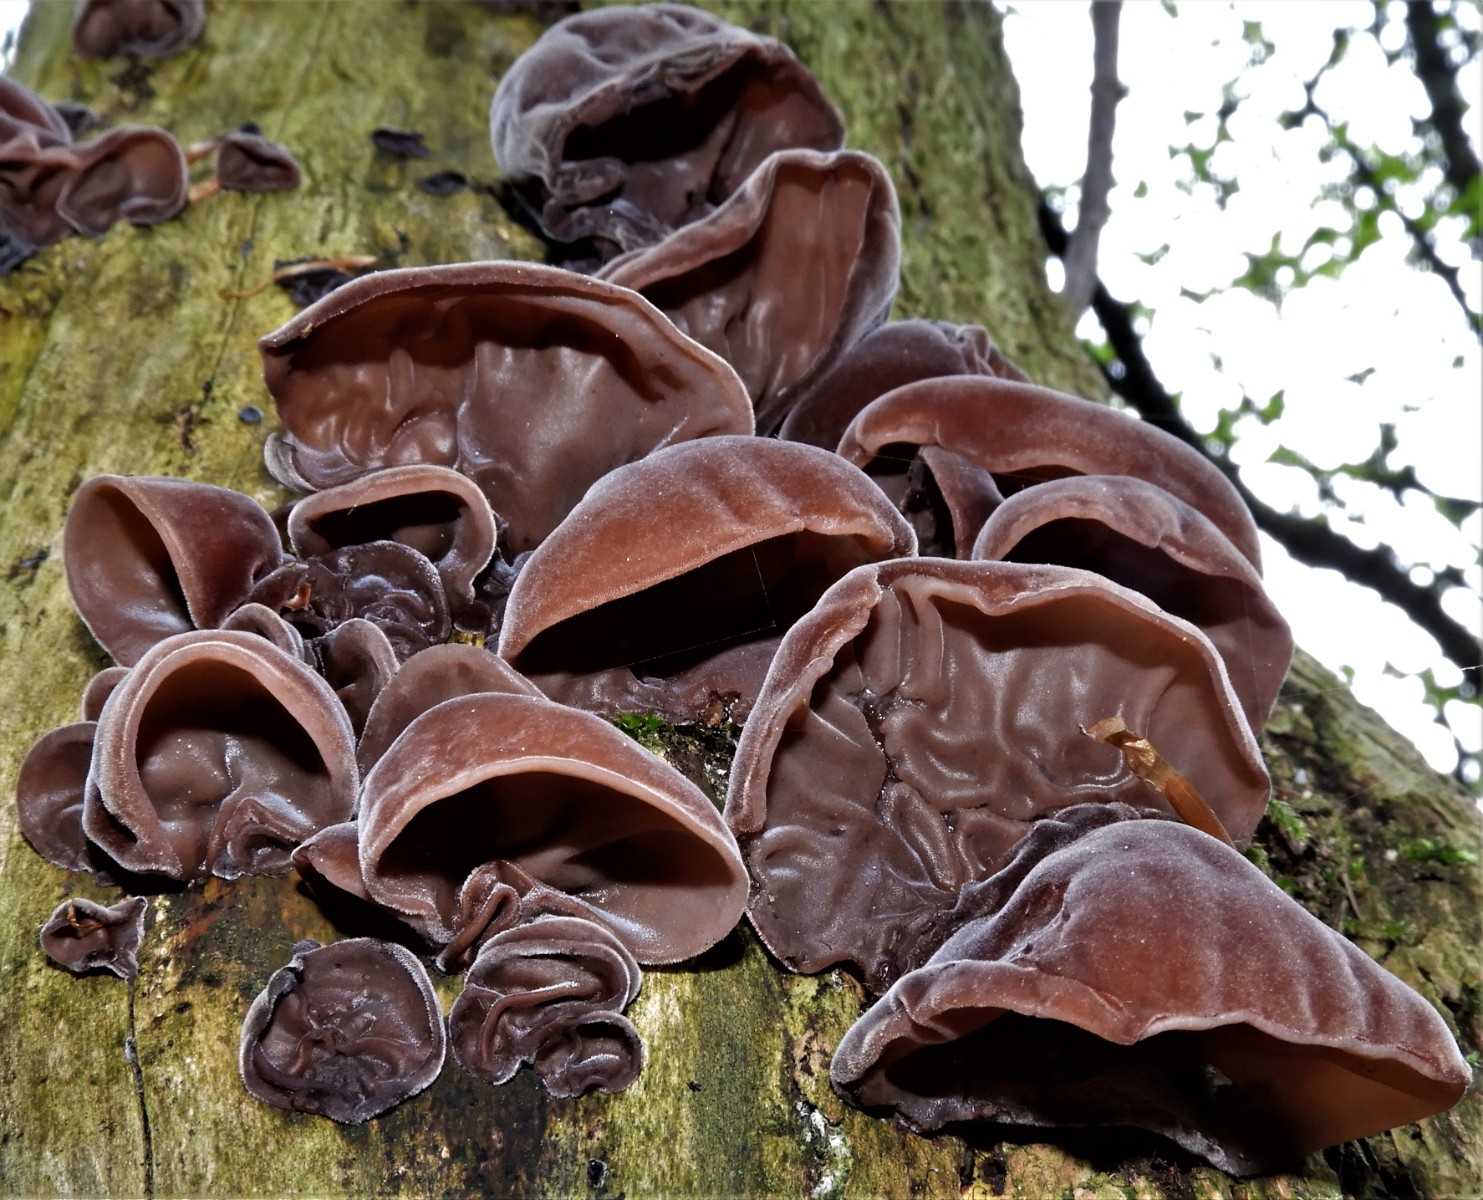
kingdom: Fungi
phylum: Basidiomycota
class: Agaricomycetes
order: Auriculariales
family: Auriculariaceae
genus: Auricularia
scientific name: Auricularia auricula-judae
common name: almindelig judasøre
